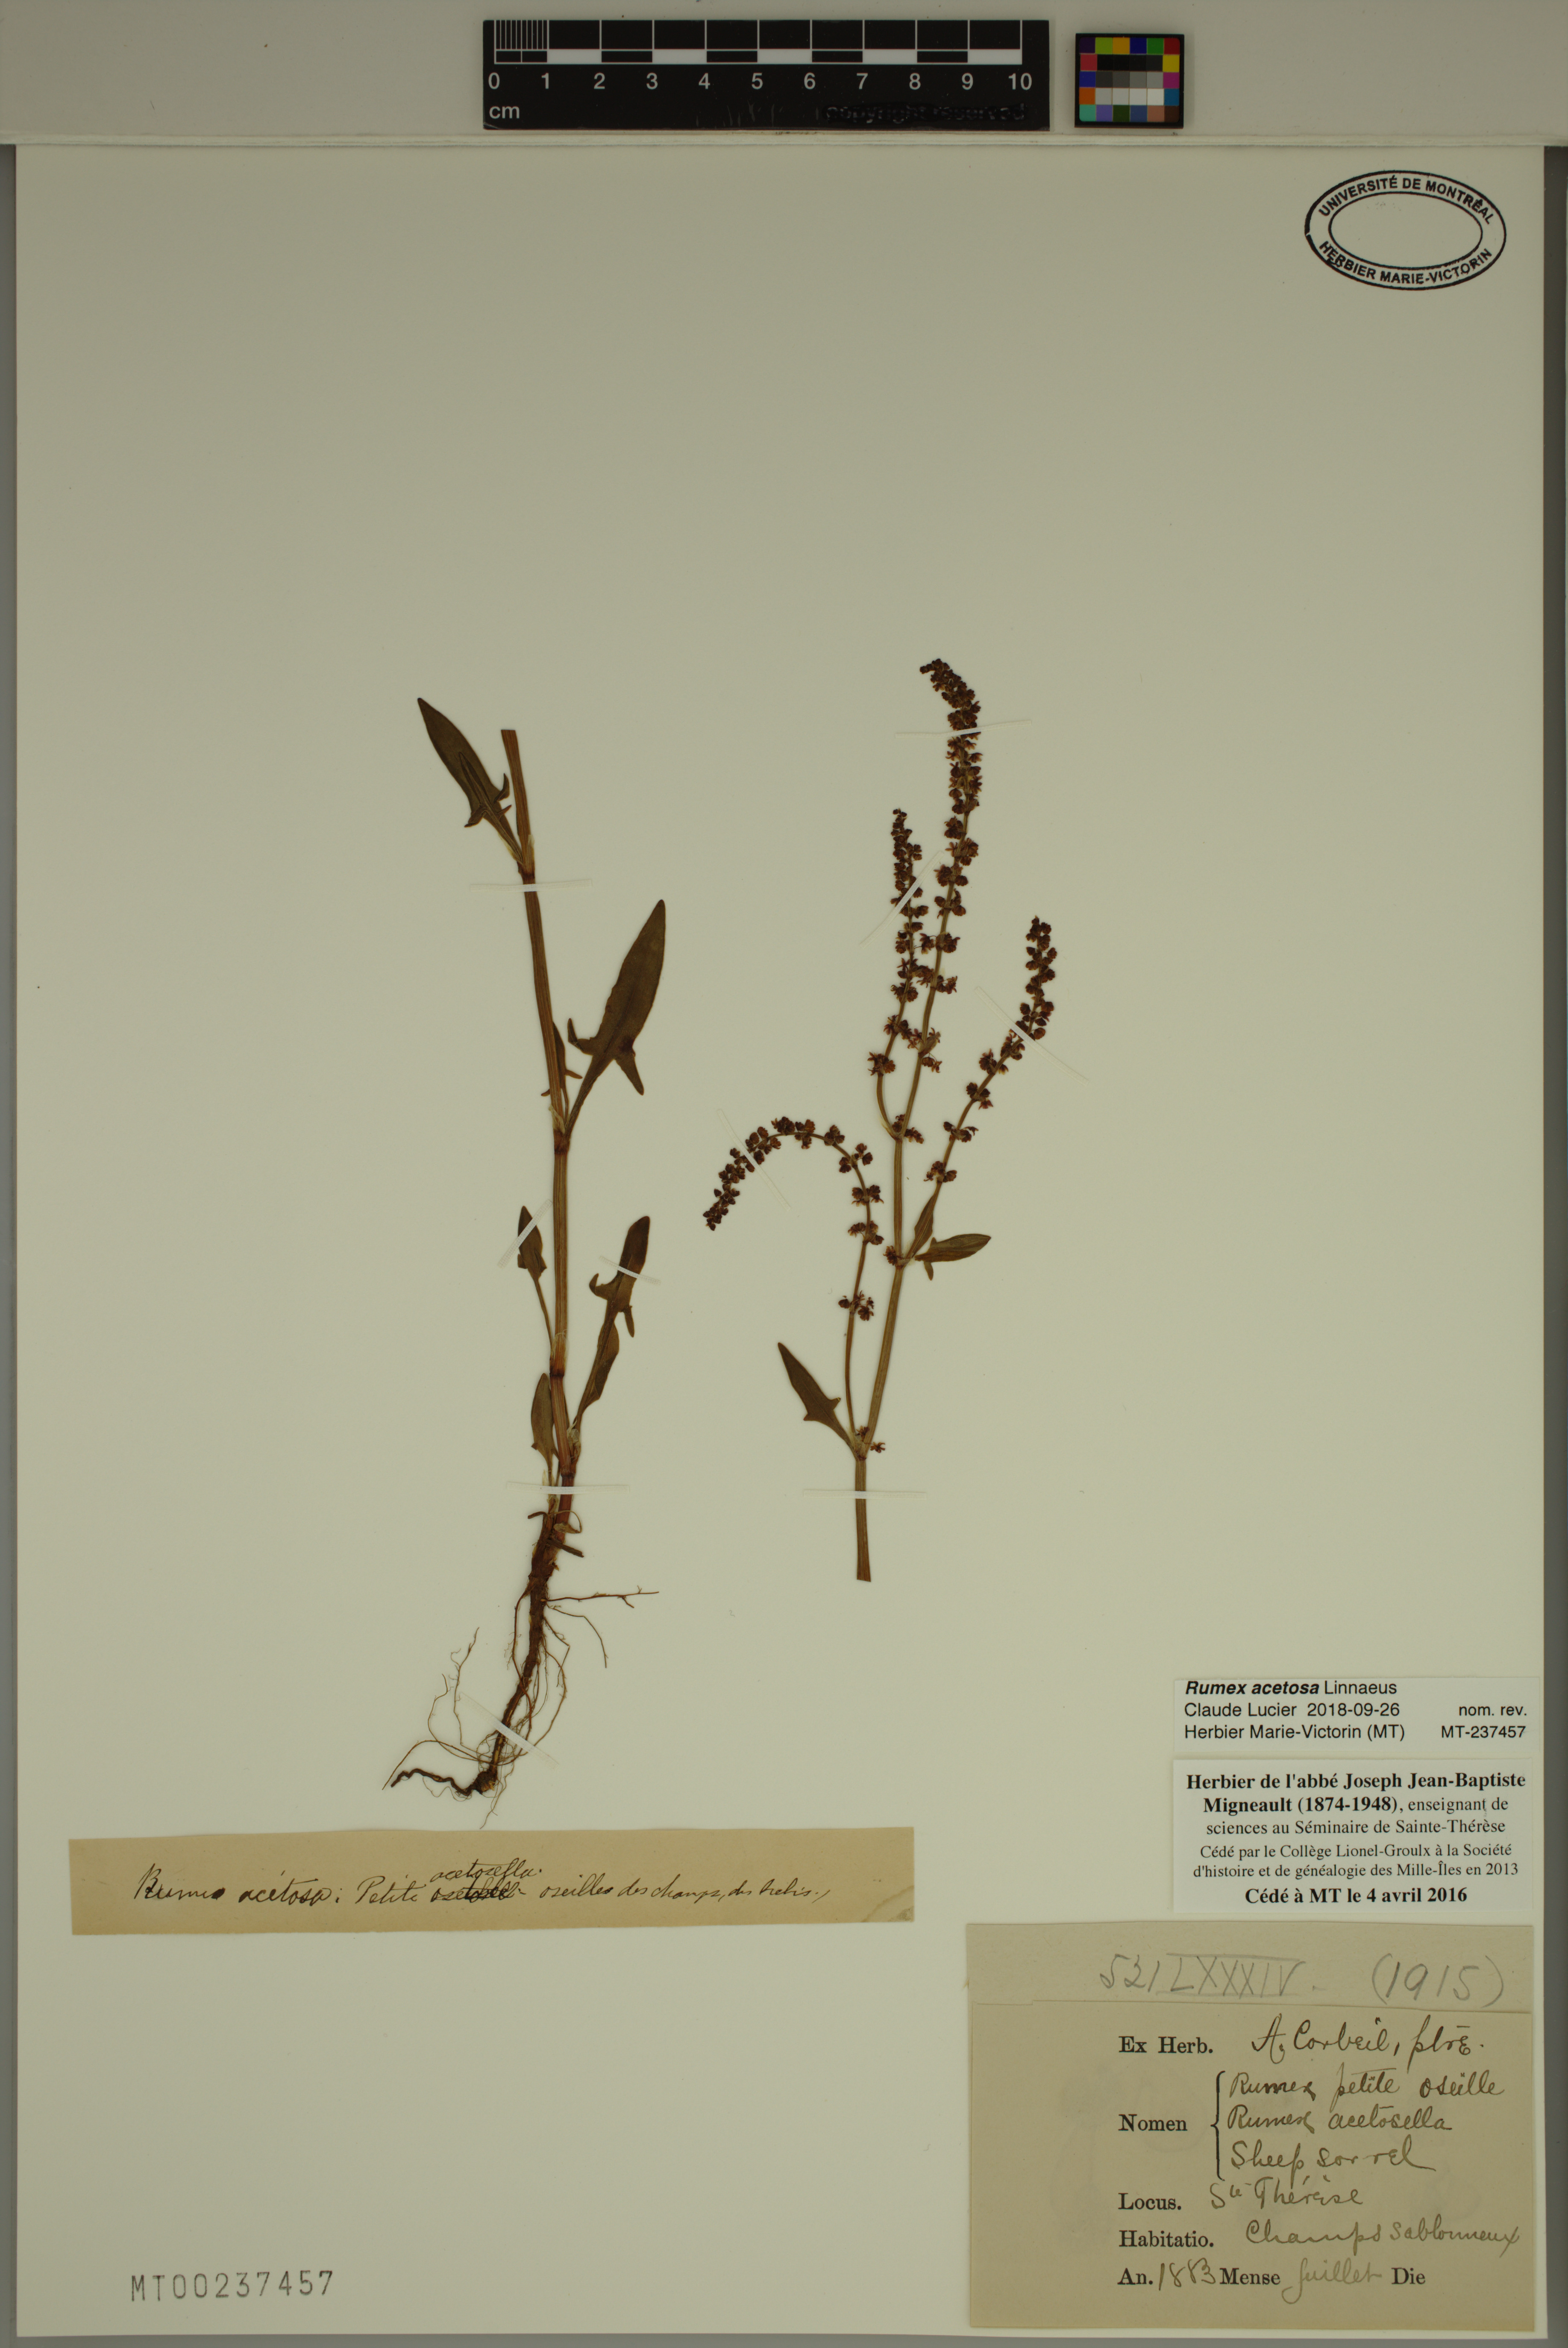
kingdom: Plantae
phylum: Tracheophyta
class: Magnoliopsida
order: Caryophyllales
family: Polygonaceae
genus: Rumex
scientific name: Rumex acetosa
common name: Garden sorrel
